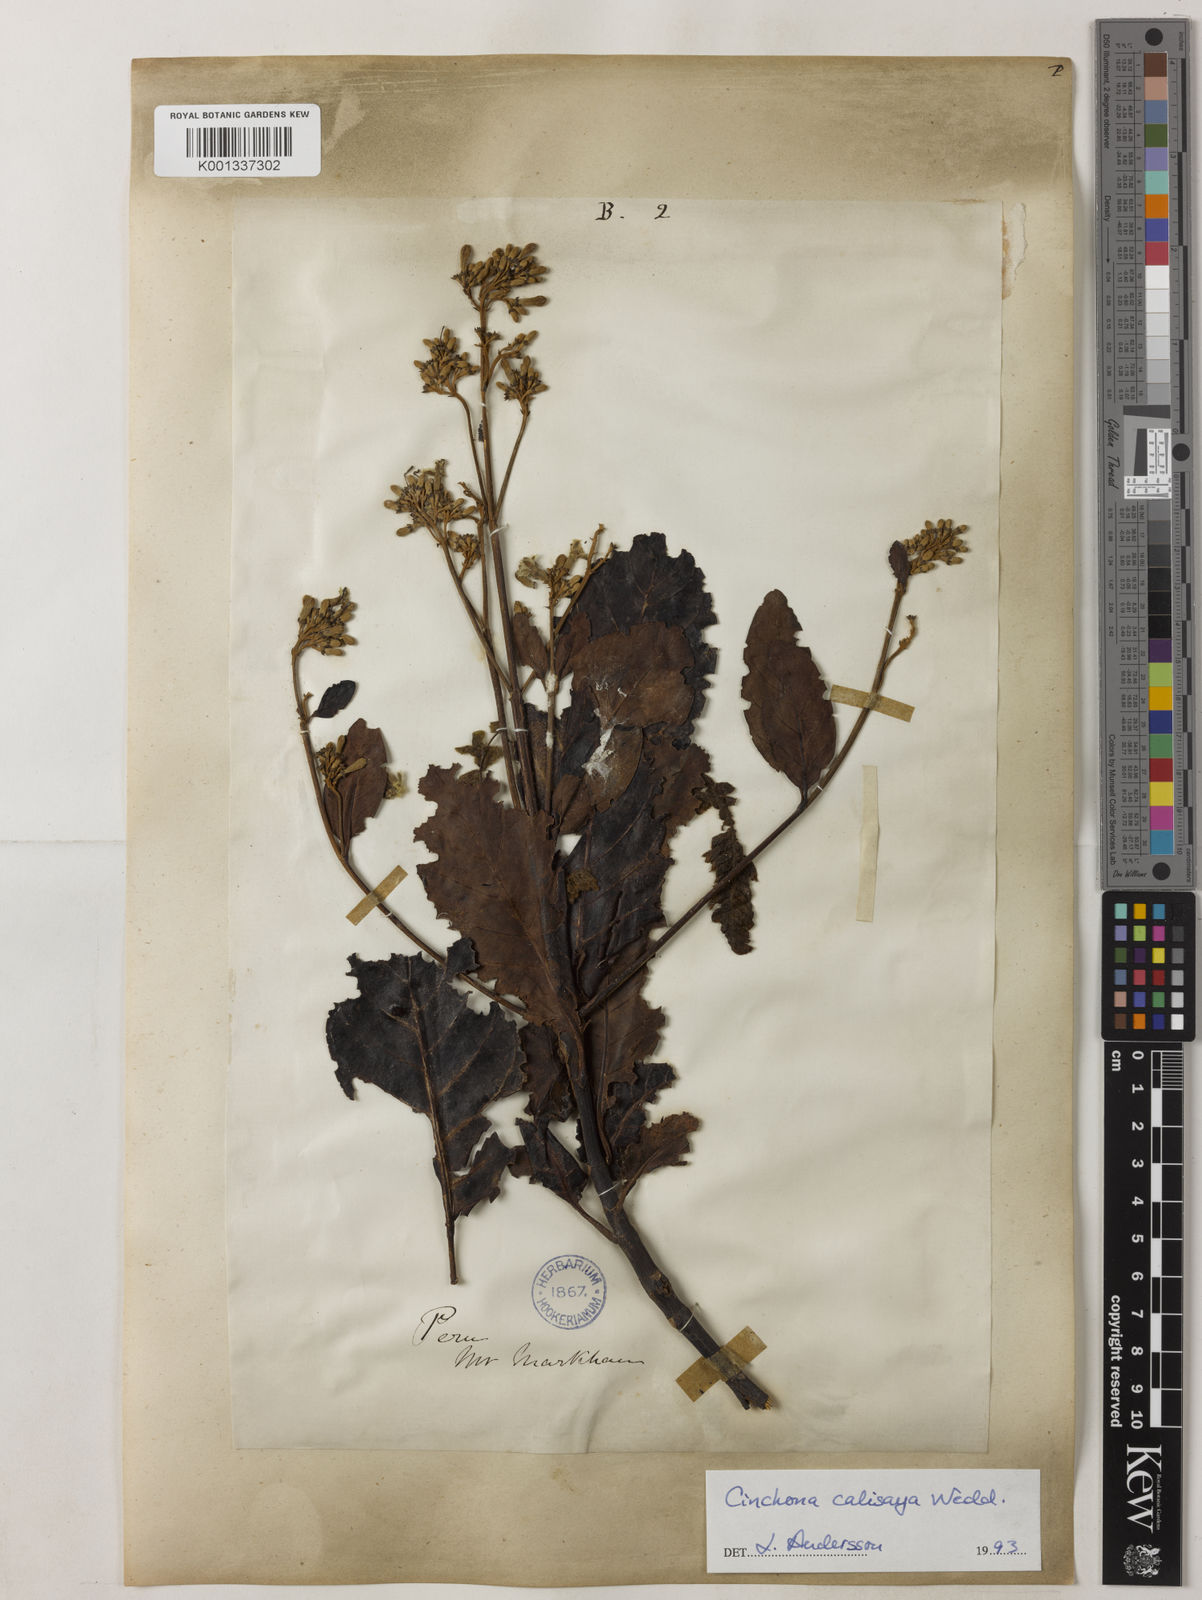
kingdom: Plantae
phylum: Tracheophyta
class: Magnoliopsida
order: Gentianales
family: Rubiaceae
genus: Cinchona
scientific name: Cinchona calisaya
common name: Ledgerbark
